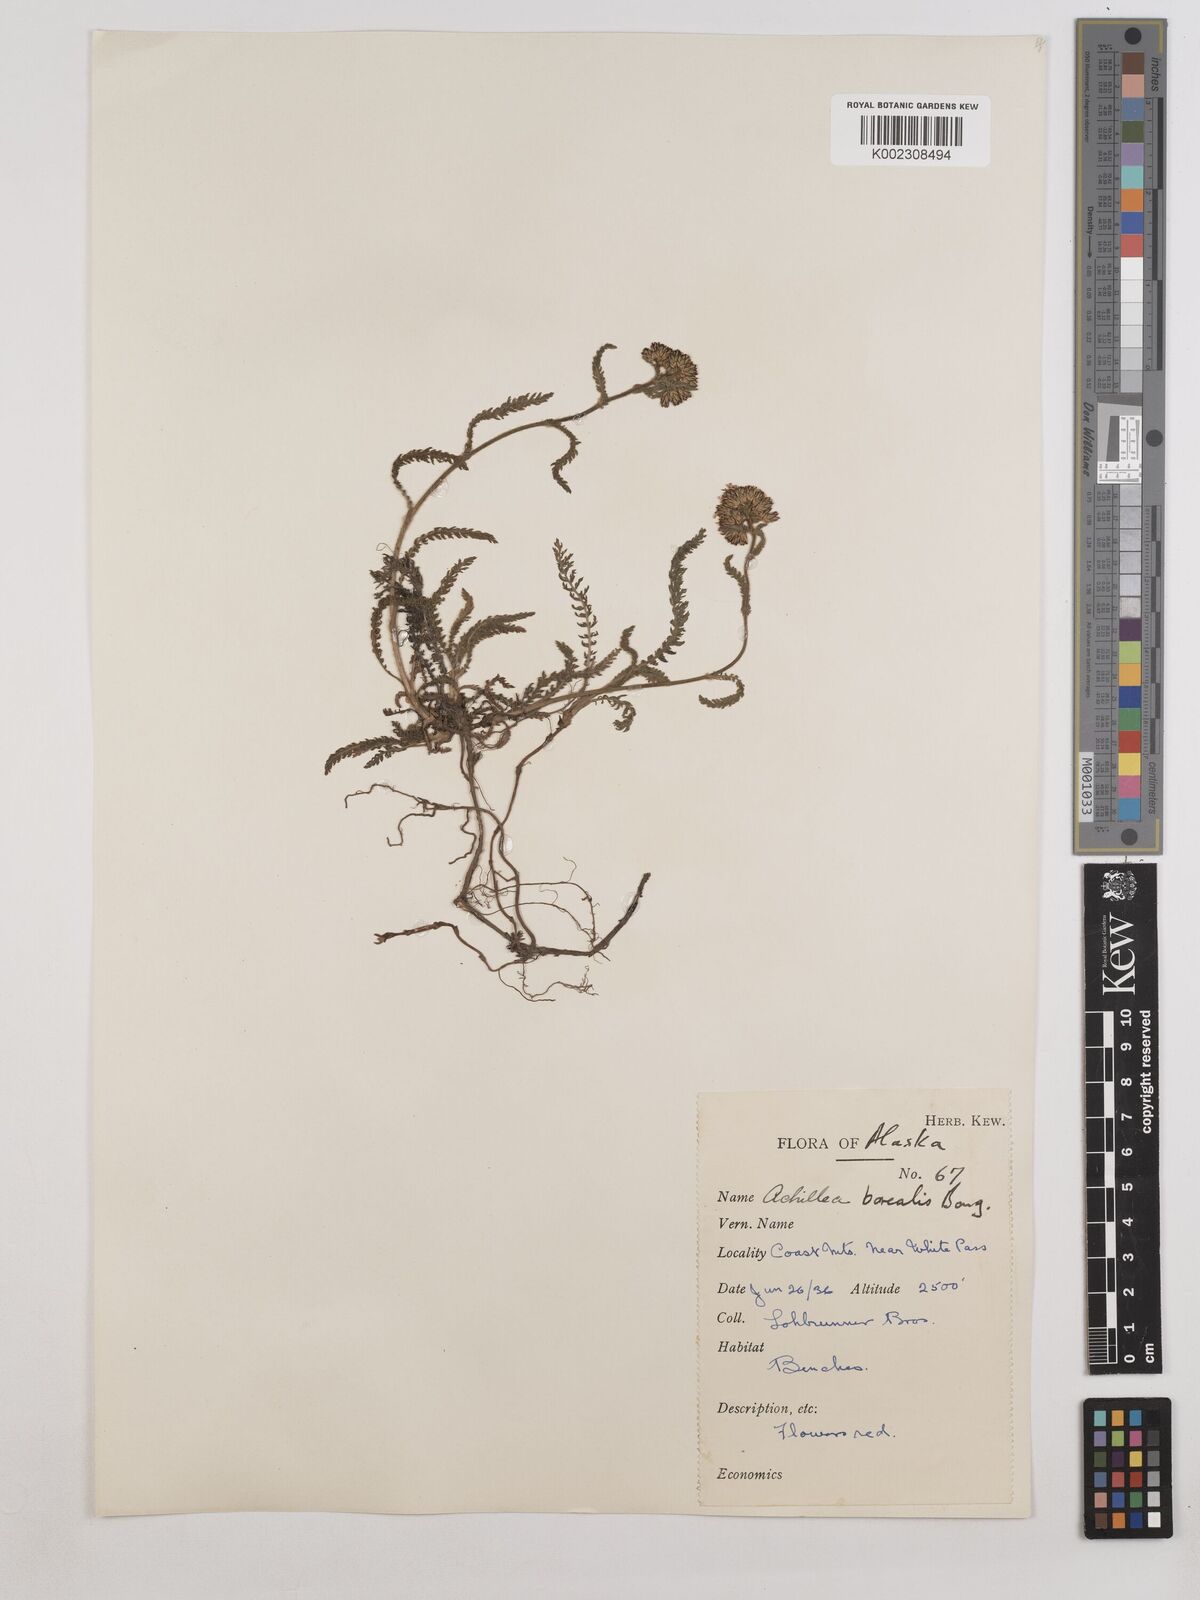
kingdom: Plantae
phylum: Tracheophyta
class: Magnoliopsida
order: Asterales
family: Asteraceae
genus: Achillea
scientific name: Achillea millefolium
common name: Yarrow
